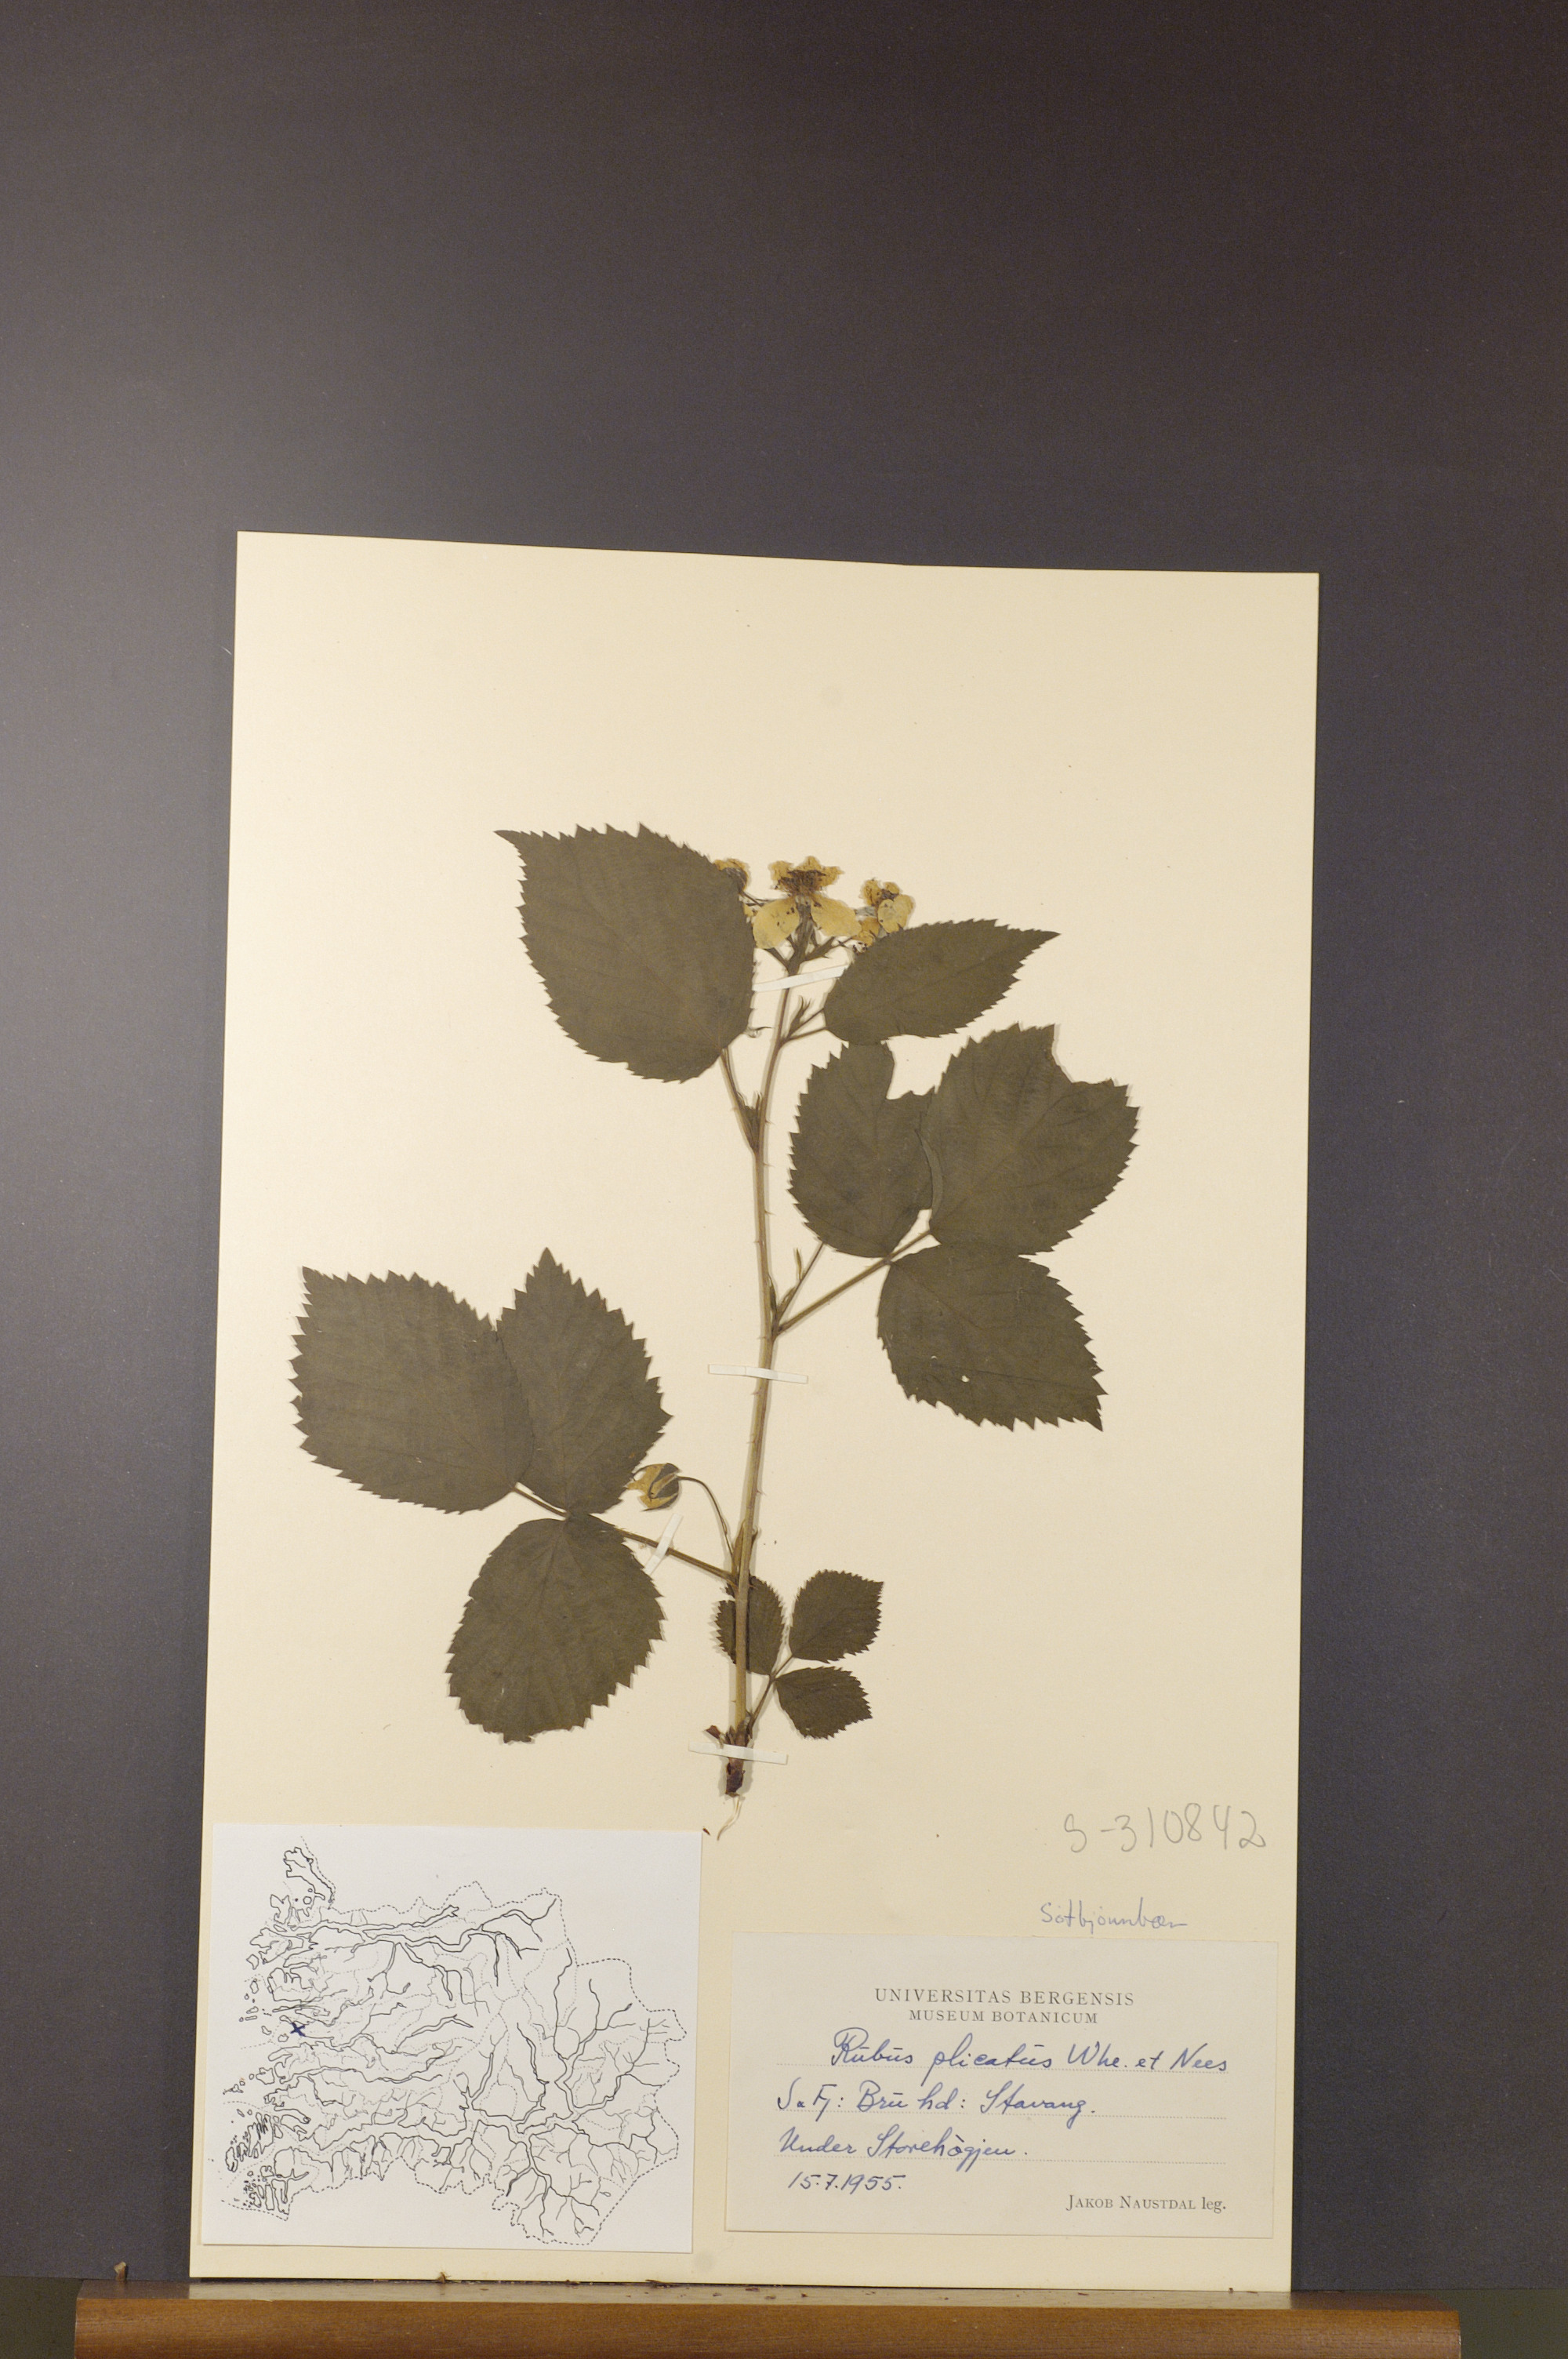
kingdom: Plantae
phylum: Tracheophyta
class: Magnoliopsida
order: Rosales
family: Rosaceae
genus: Rubus
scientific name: Rubus fruticosus
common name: Blackberry, bramble
